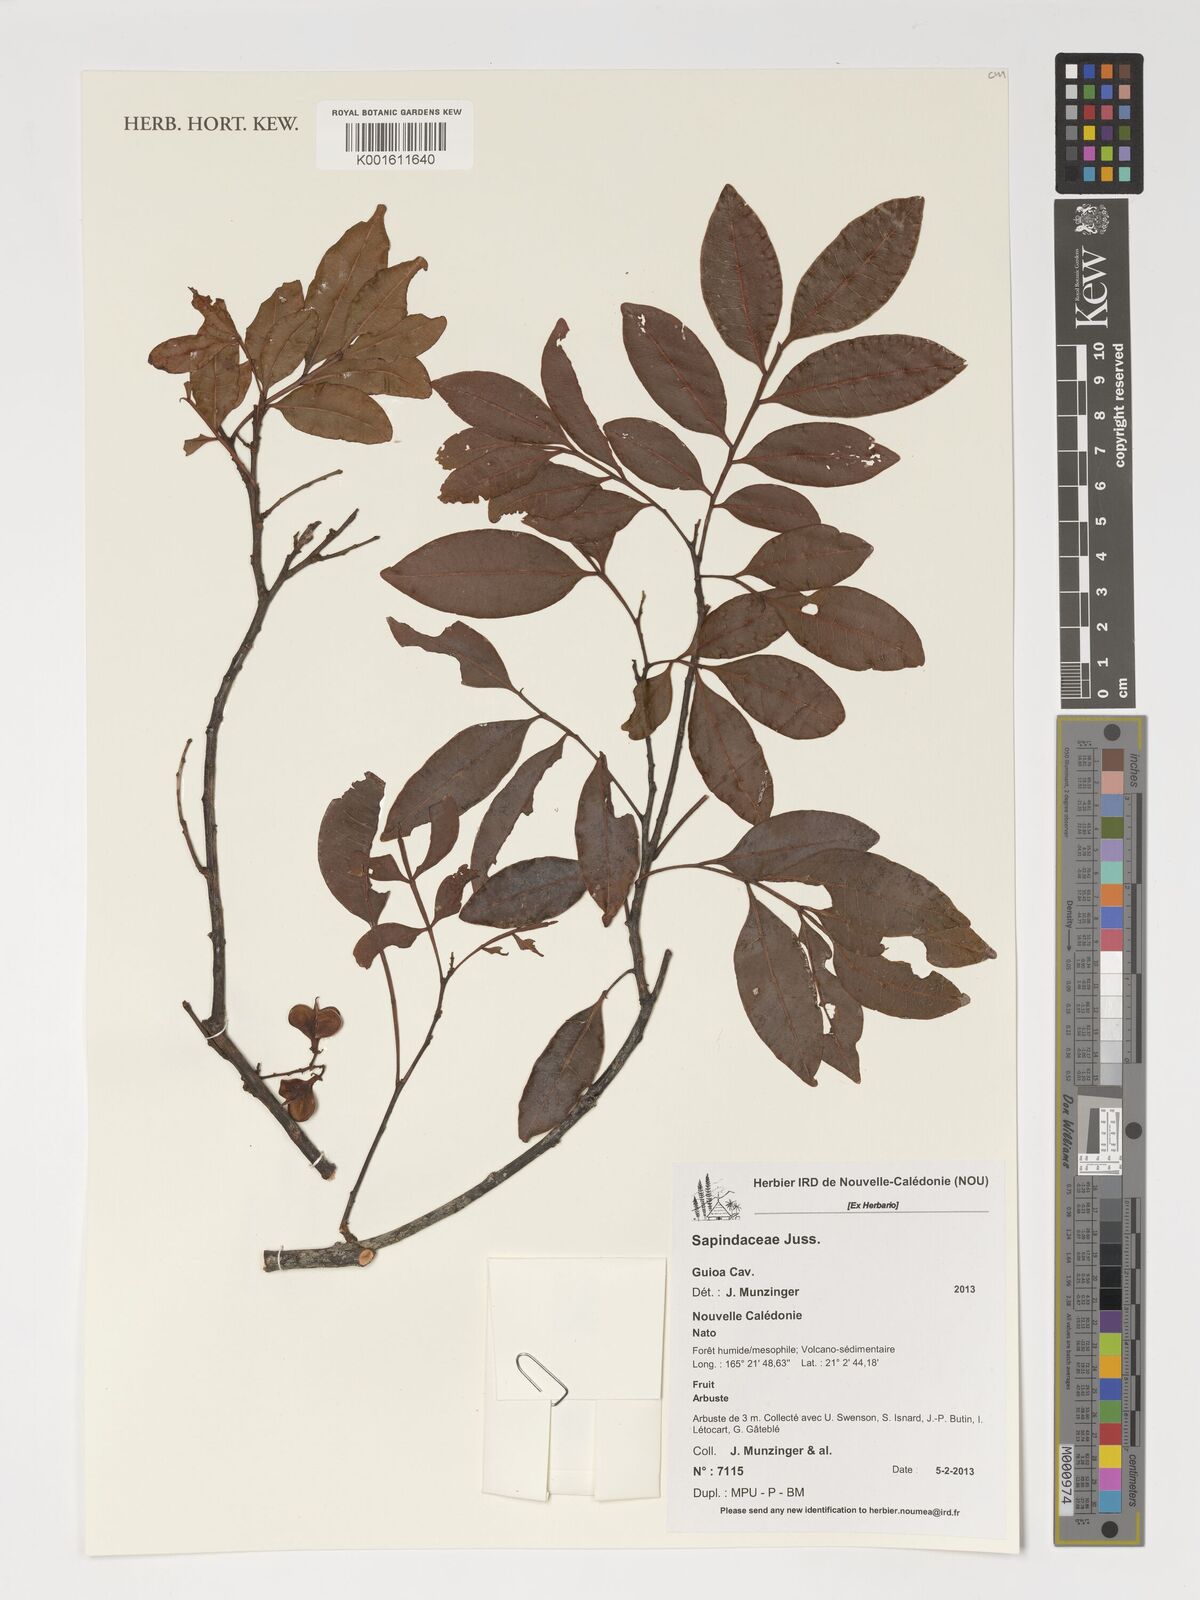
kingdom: Plantae
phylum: Tracheophyta
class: Magnoliopsida
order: Sapindales
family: Sapindaceae
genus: Guioa
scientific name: Guioa
